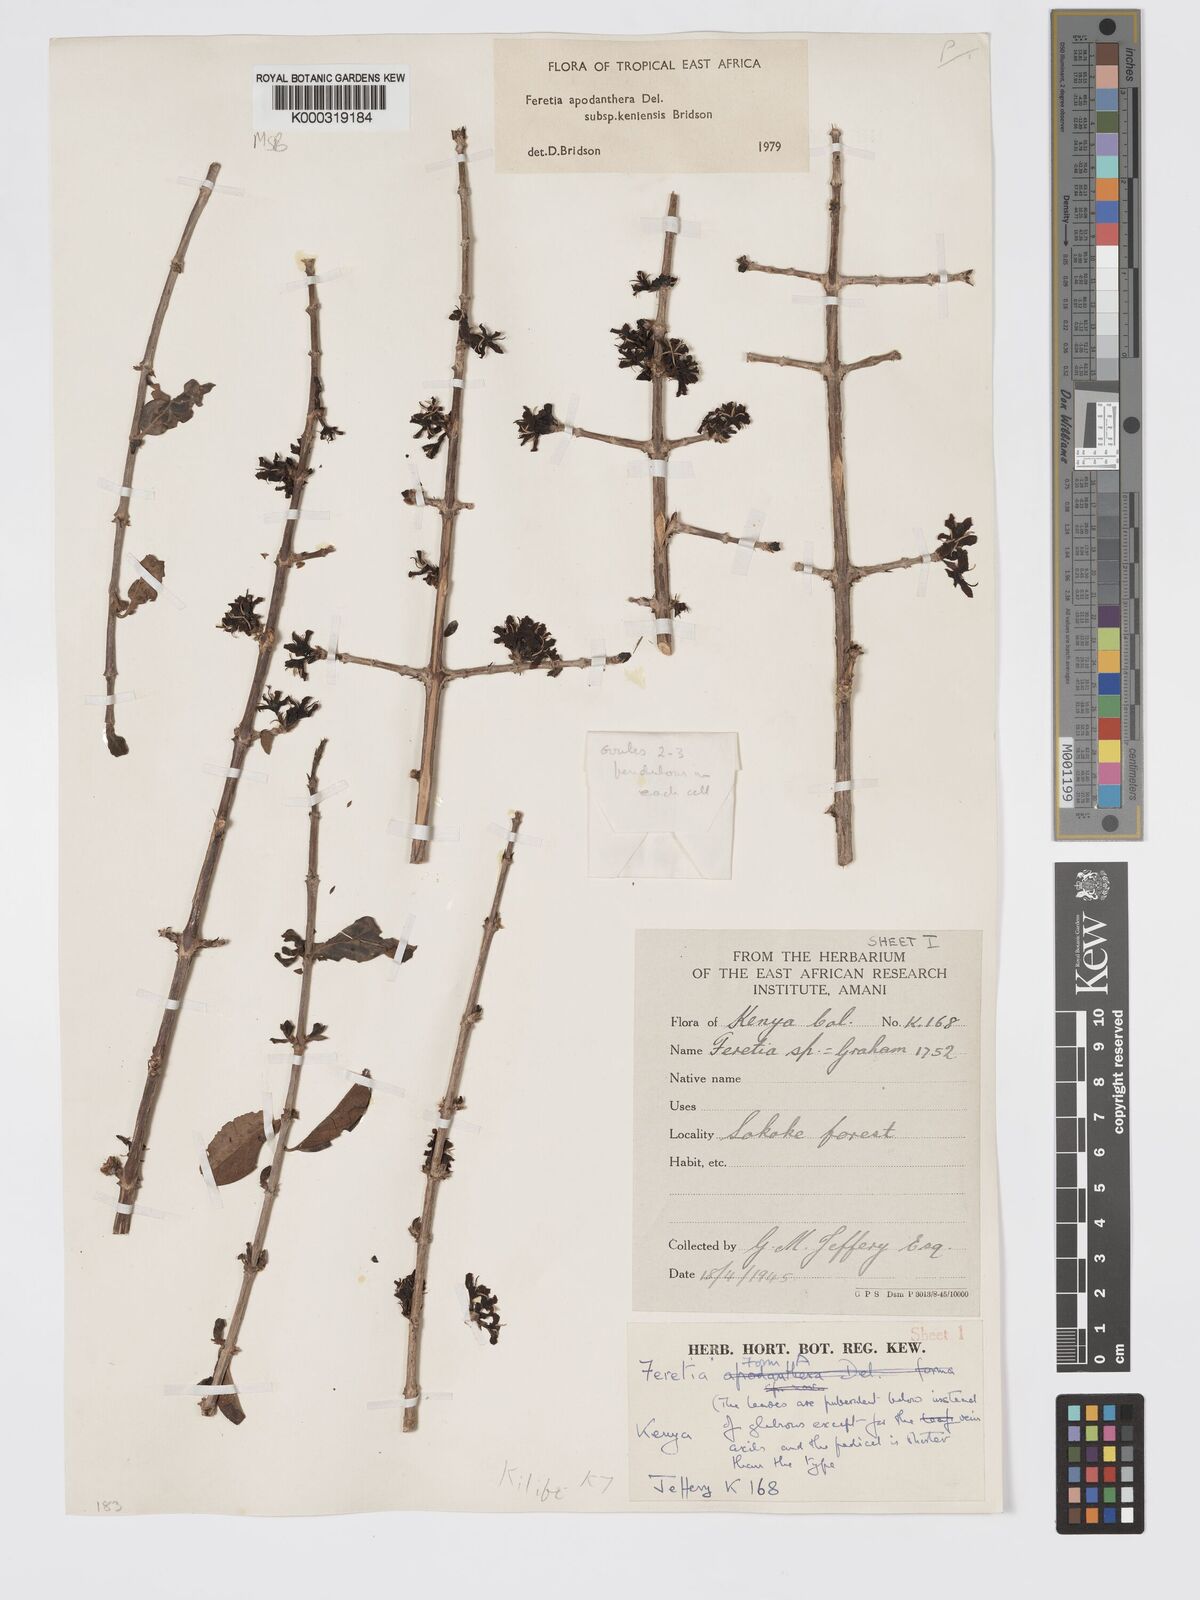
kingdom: Plantae
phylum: Tracheophyta
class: Magnoliopsida
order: Gentianales
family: Rubiaceae
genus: Feretia
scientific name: Feretia apodanthera
